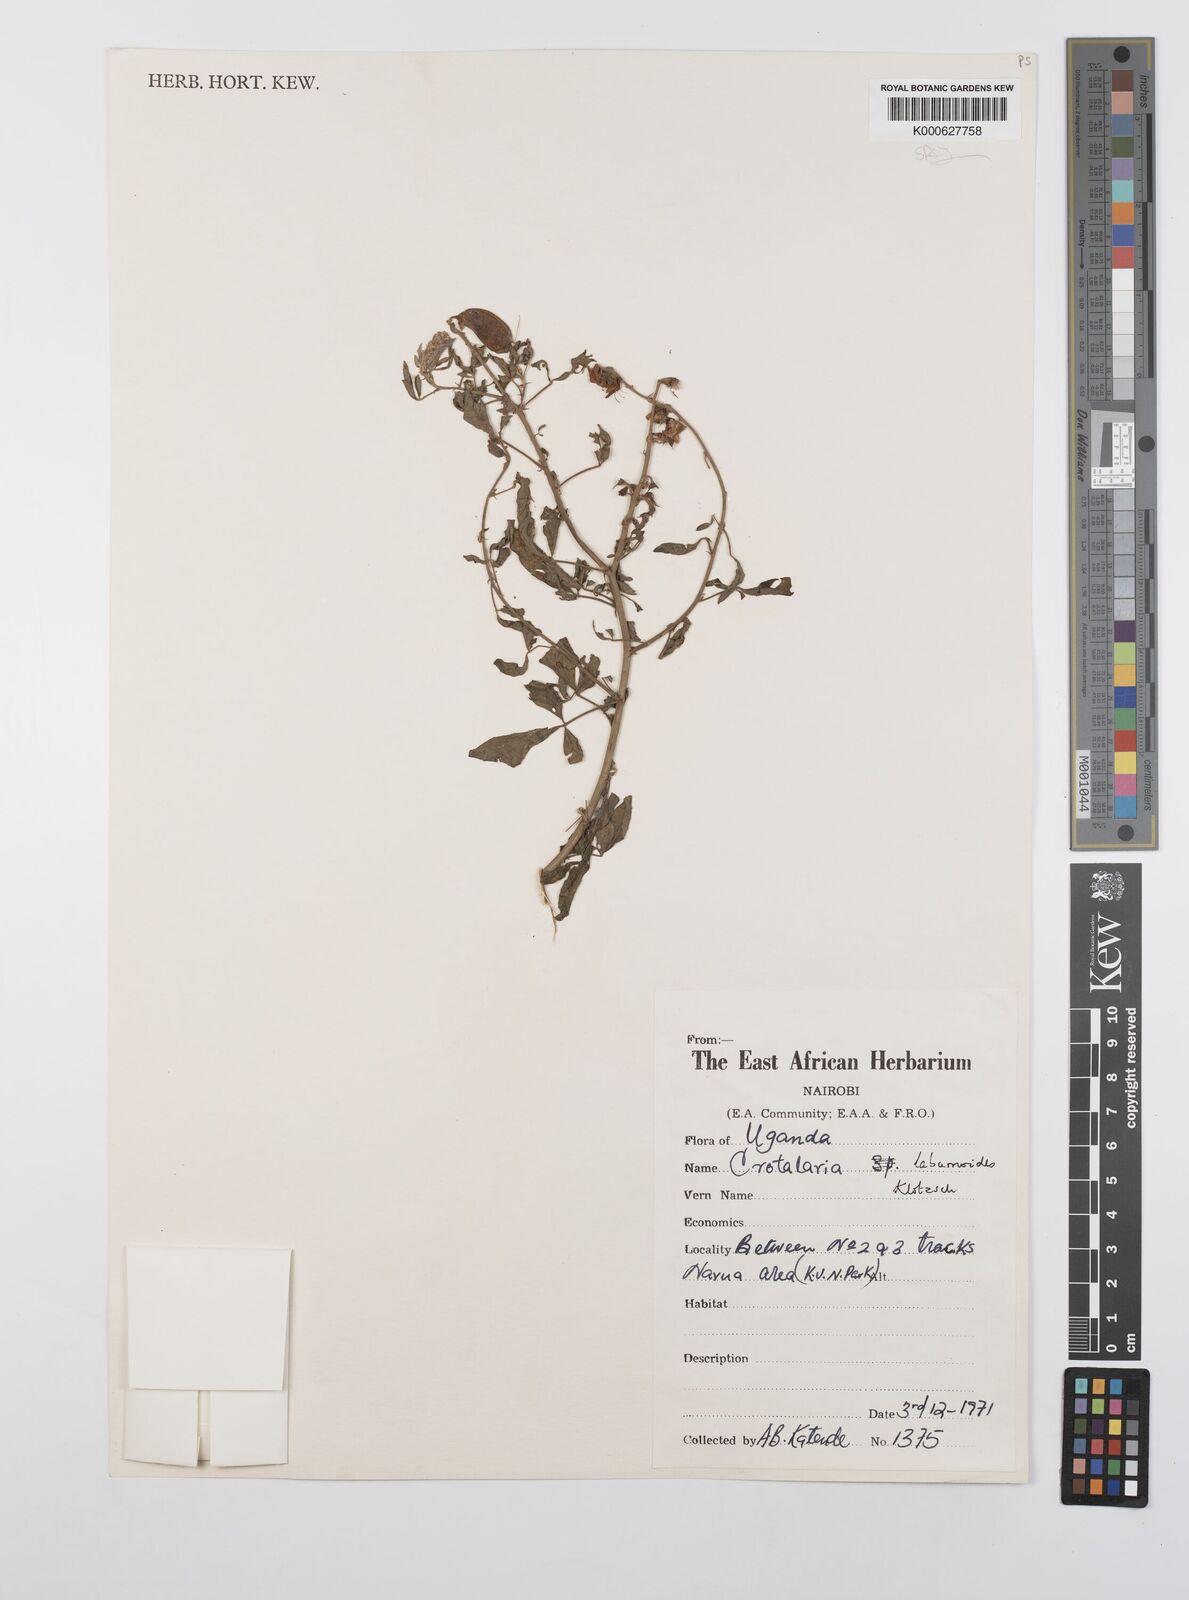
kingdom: Plantae
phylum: Tracheophyta
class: Magnoliopsida
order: Fabales
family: Fabaceae
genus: Crotalaria
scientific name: Crotalaria laburnoides
